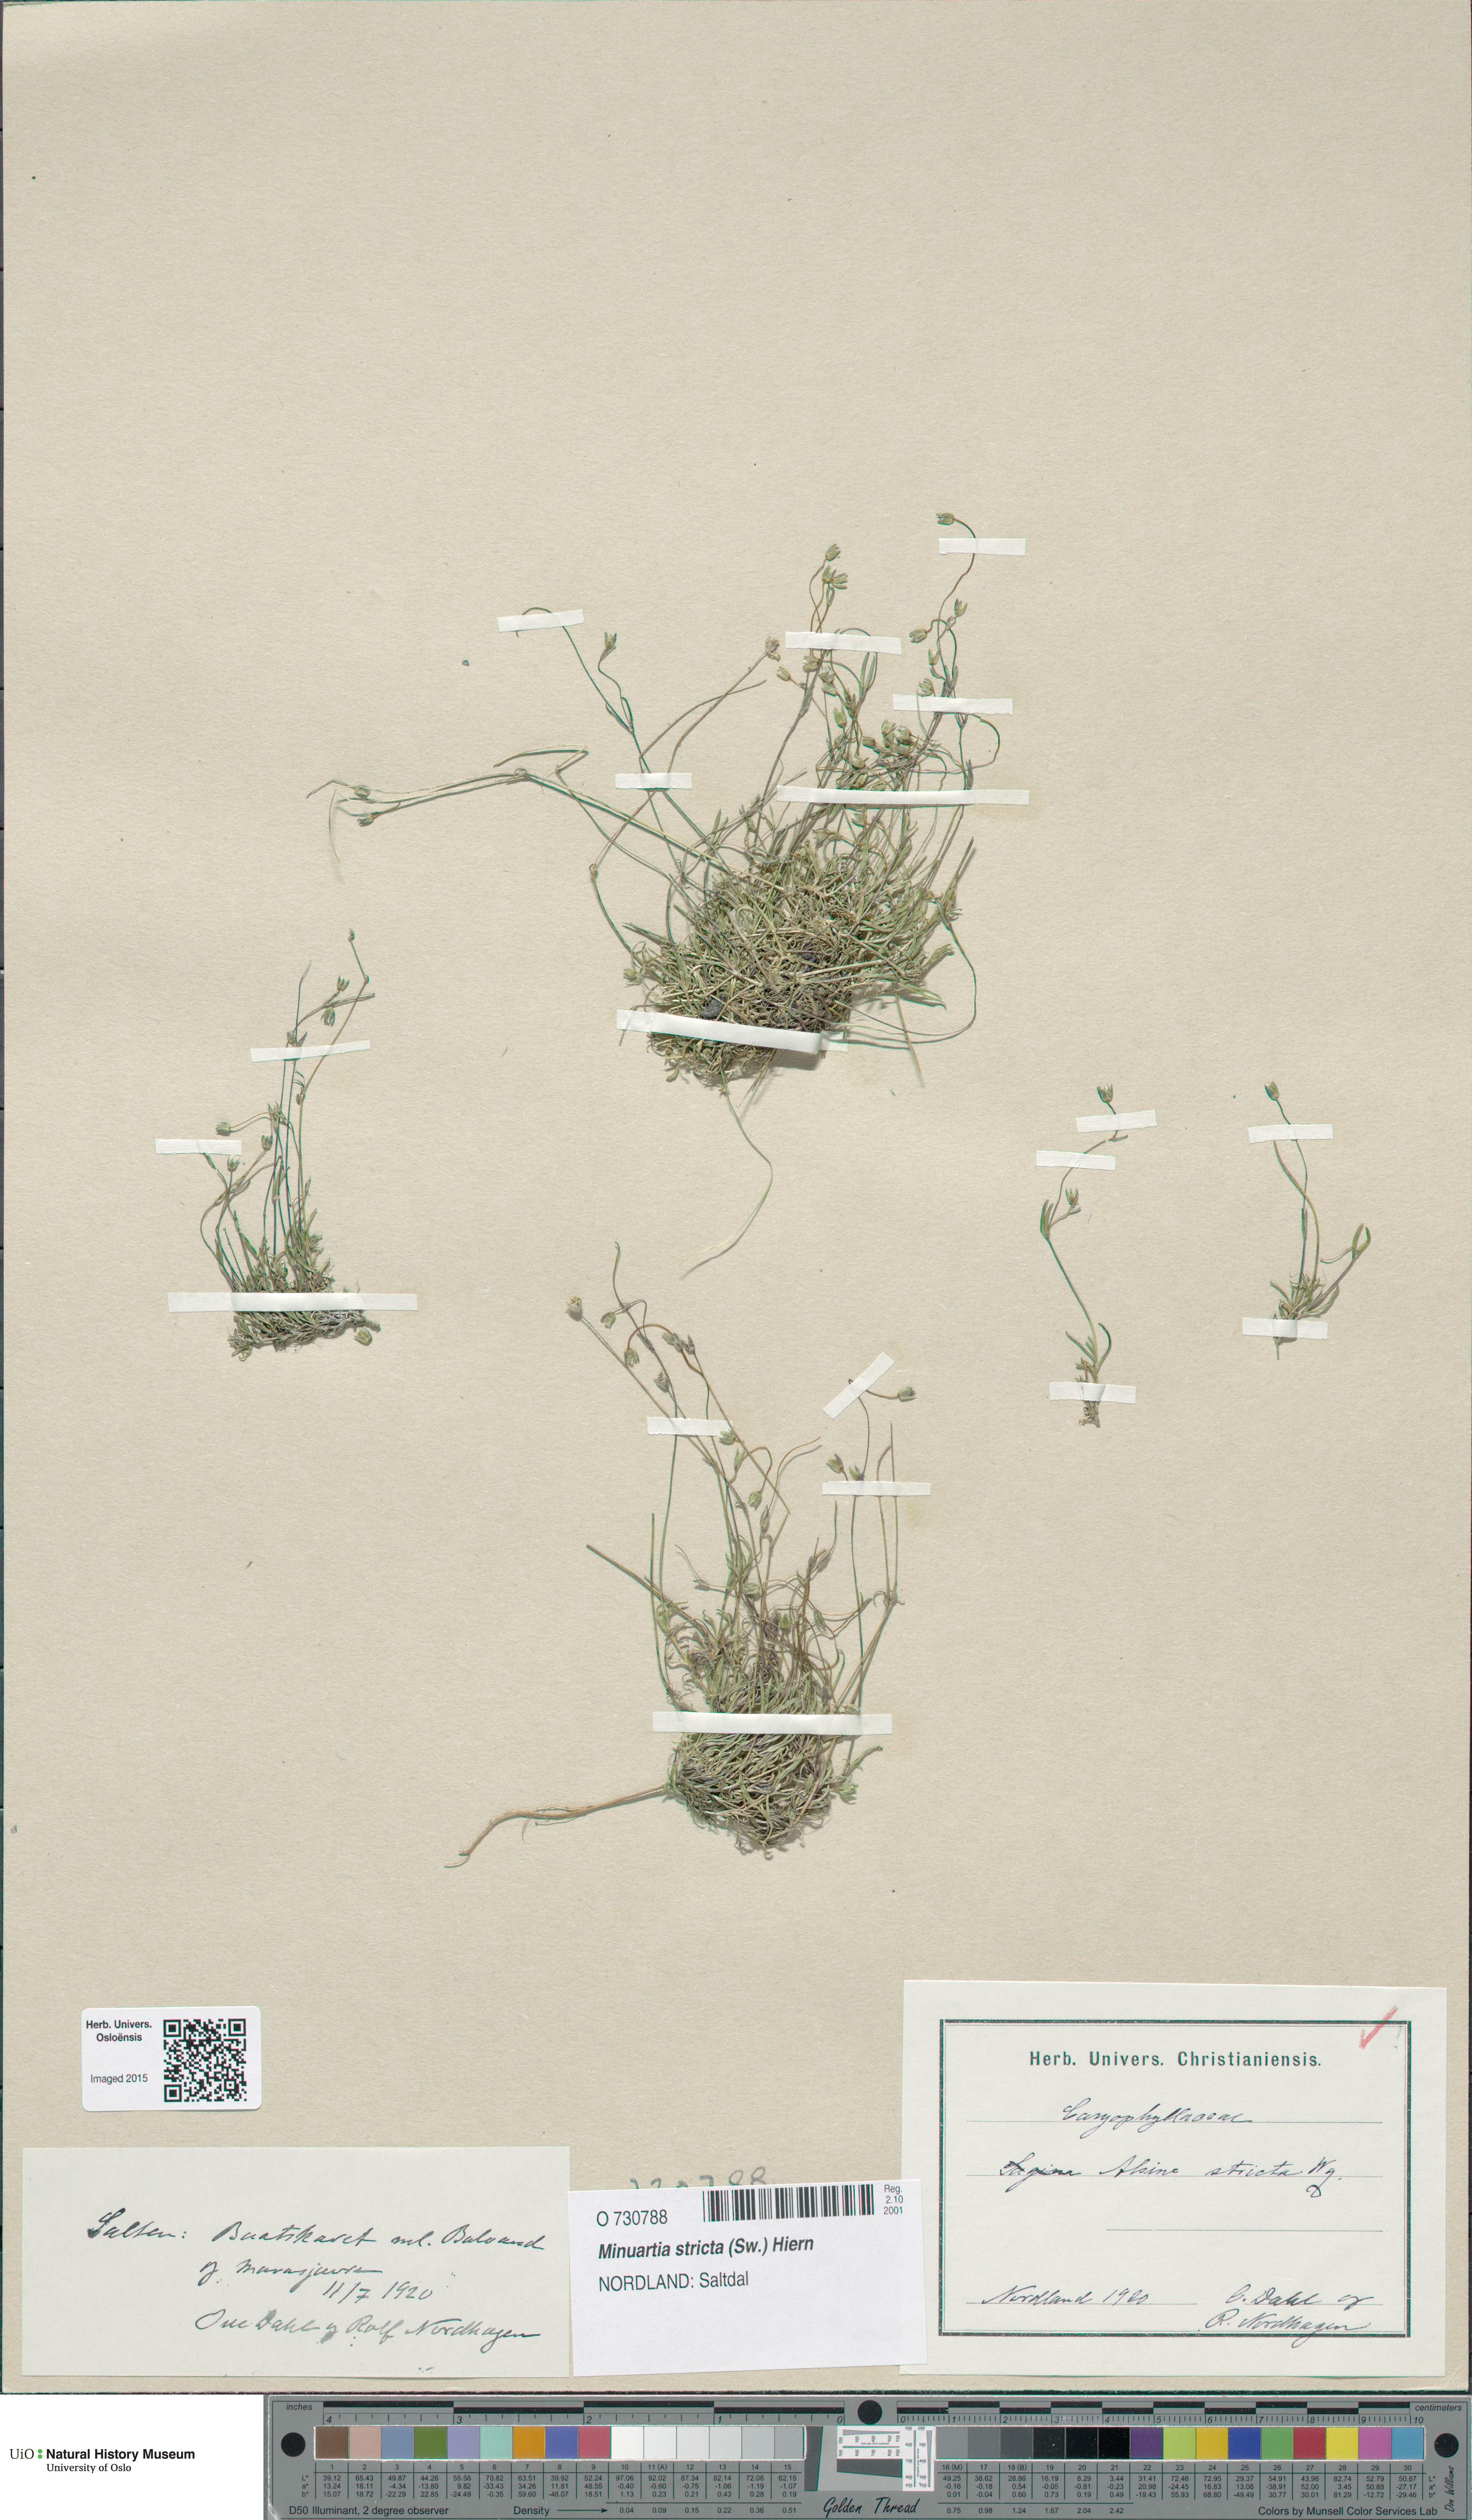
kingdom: Plantae
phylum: Tracheophyta
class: Magnoliopsida
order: Caryophyllales
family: Caryophyllaceae
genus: Sabulina
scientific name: Sabulina stricta
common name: Bog sandwort
